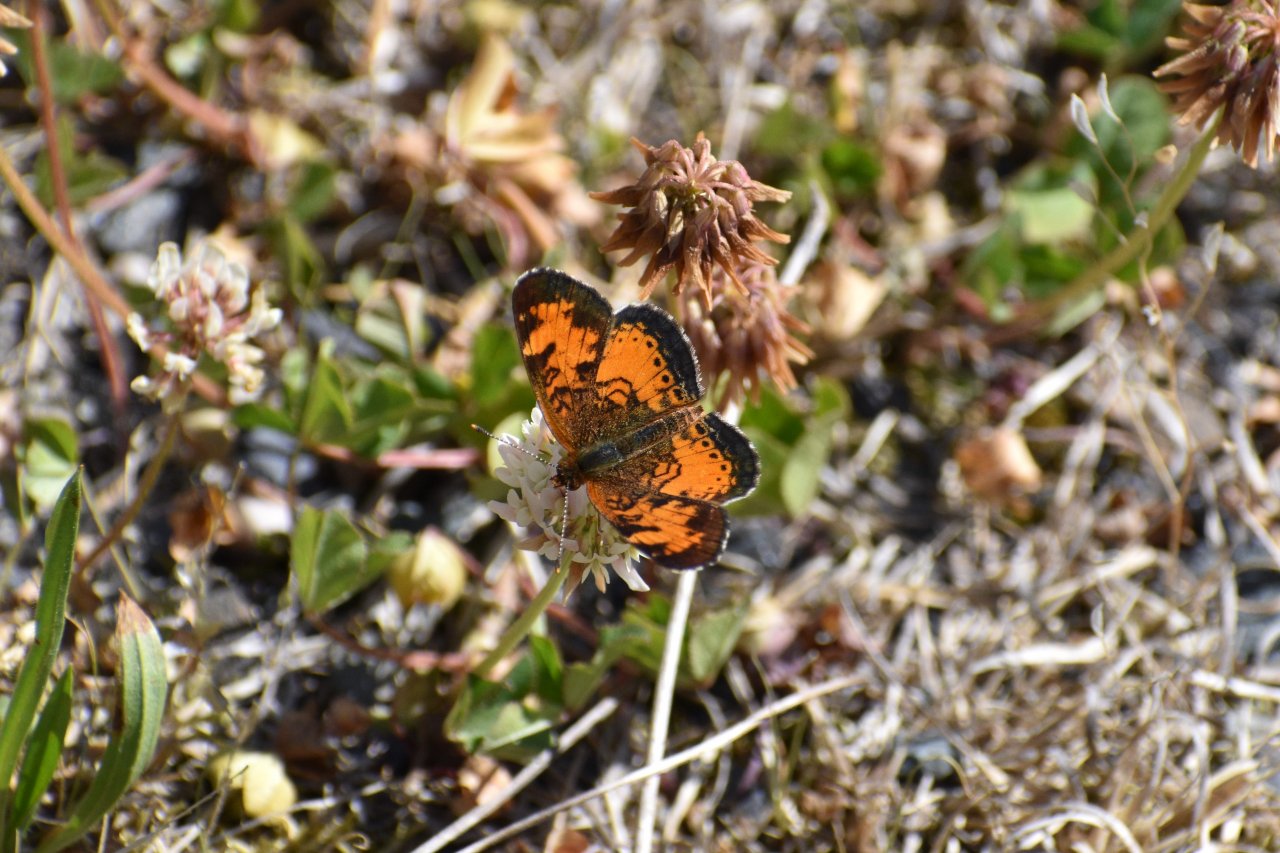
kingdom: Animalia
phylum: Arthropoda
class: Insecta
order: Lepidoptera
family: Nymphalidae
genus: Phyciodes
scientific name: Phyciodes tharos
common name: Northern Crescent
